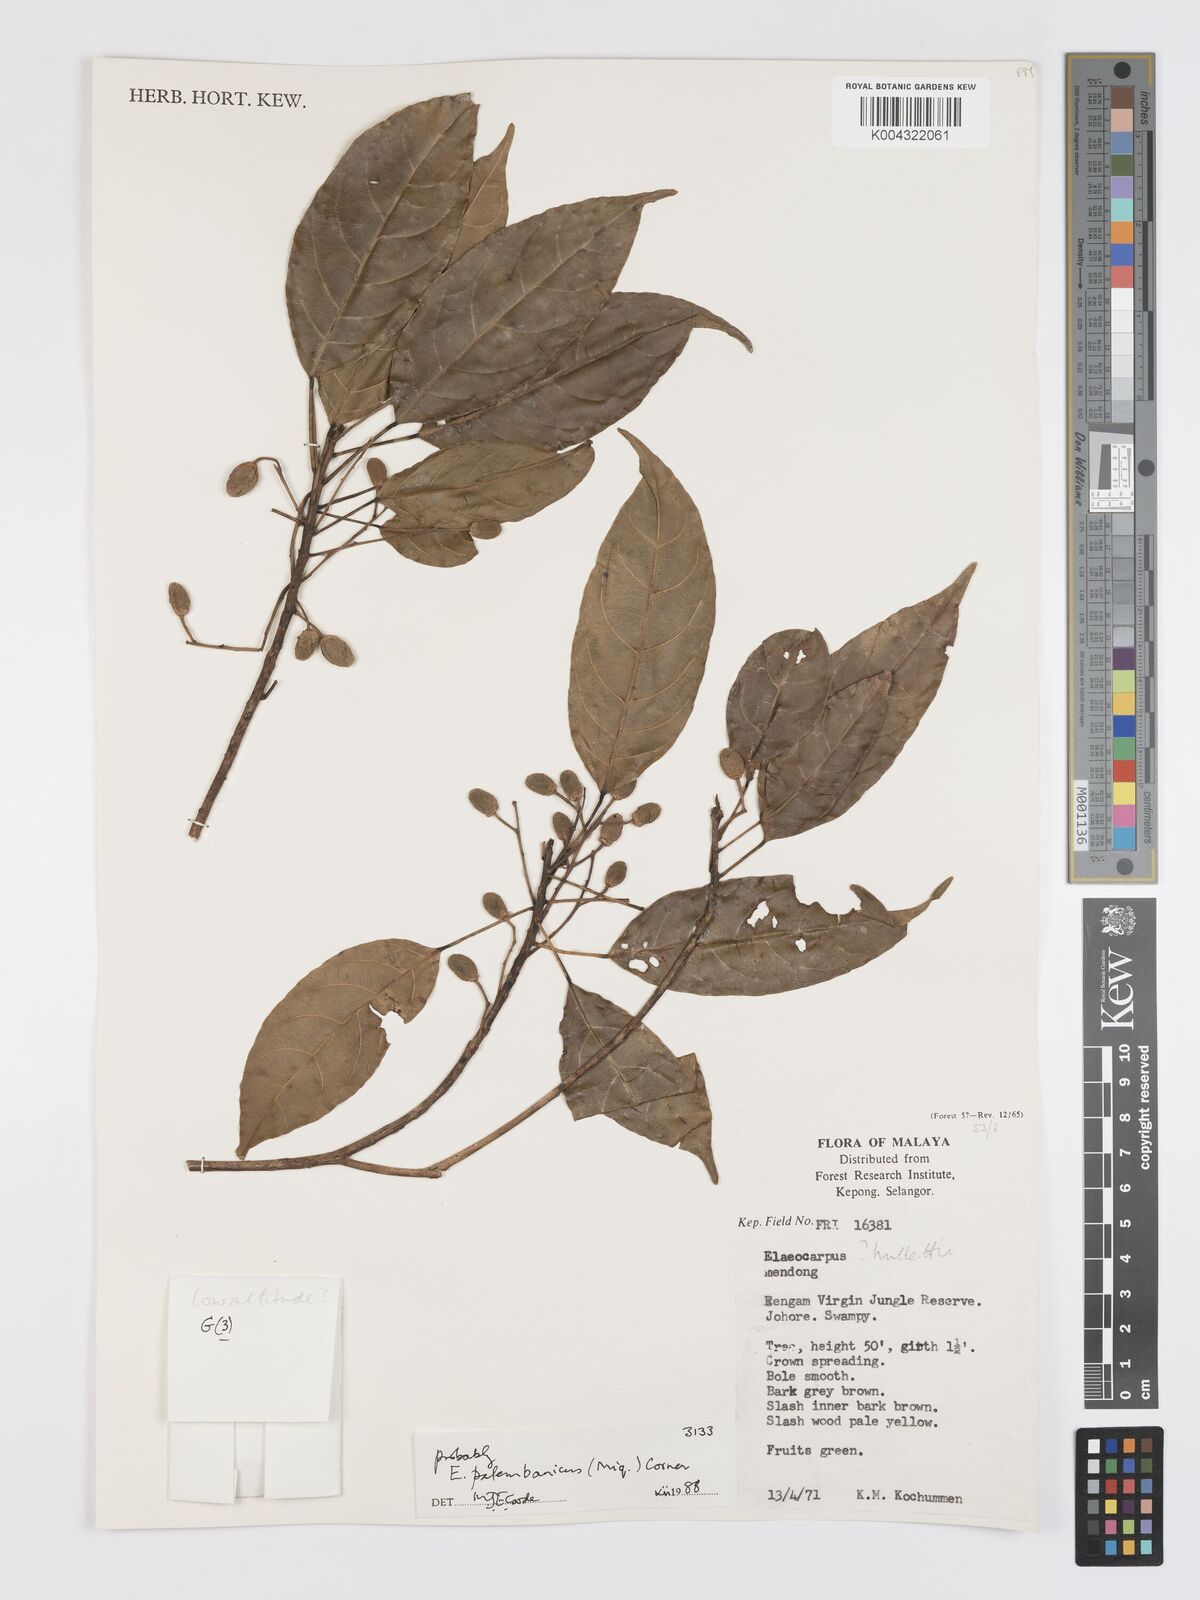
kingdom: Plantae
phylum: Tracheophyta
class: Magnoliopsida
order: Oxalidales
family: Elaeocarpaceae
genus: Elaeocarpus
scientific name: Elaeocarpus palembanicus
